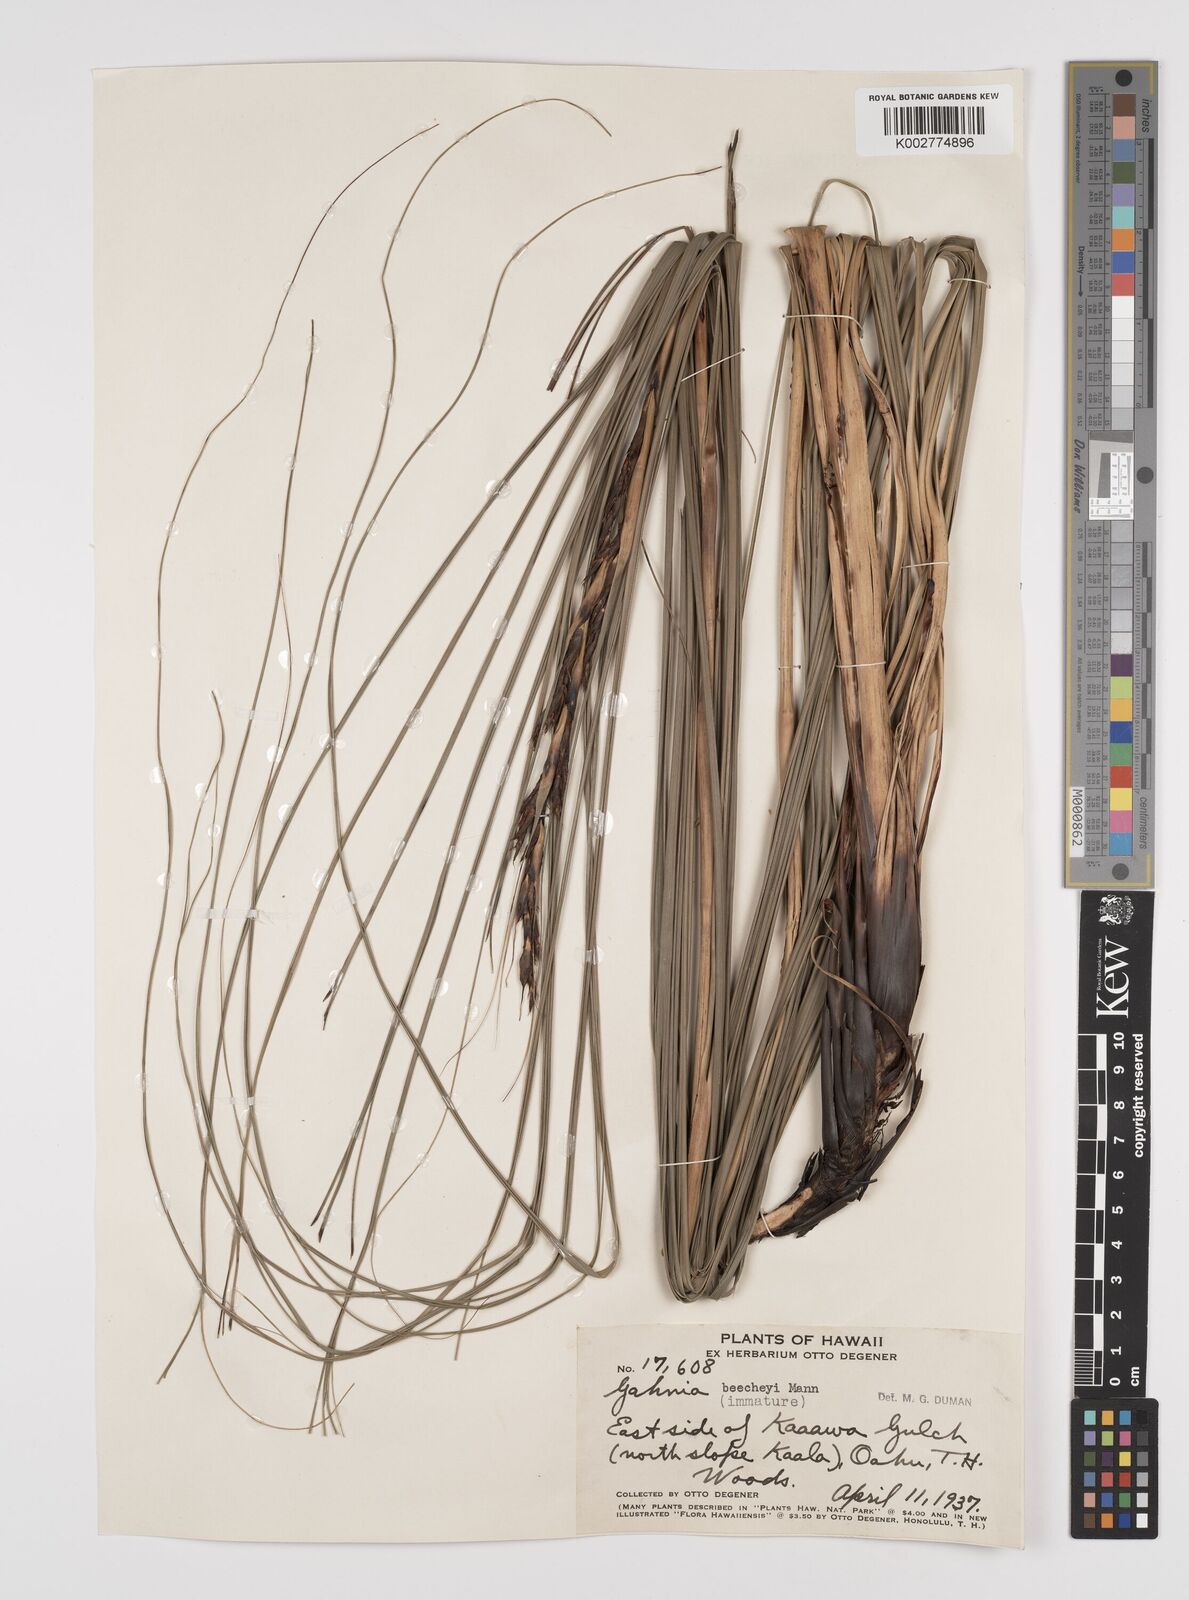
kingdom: Plantae
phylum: Tracheophyta
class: Liliopsida
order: Poales
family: Cyperaceae
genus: Gahnia
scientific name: Gahnia beecheyi
